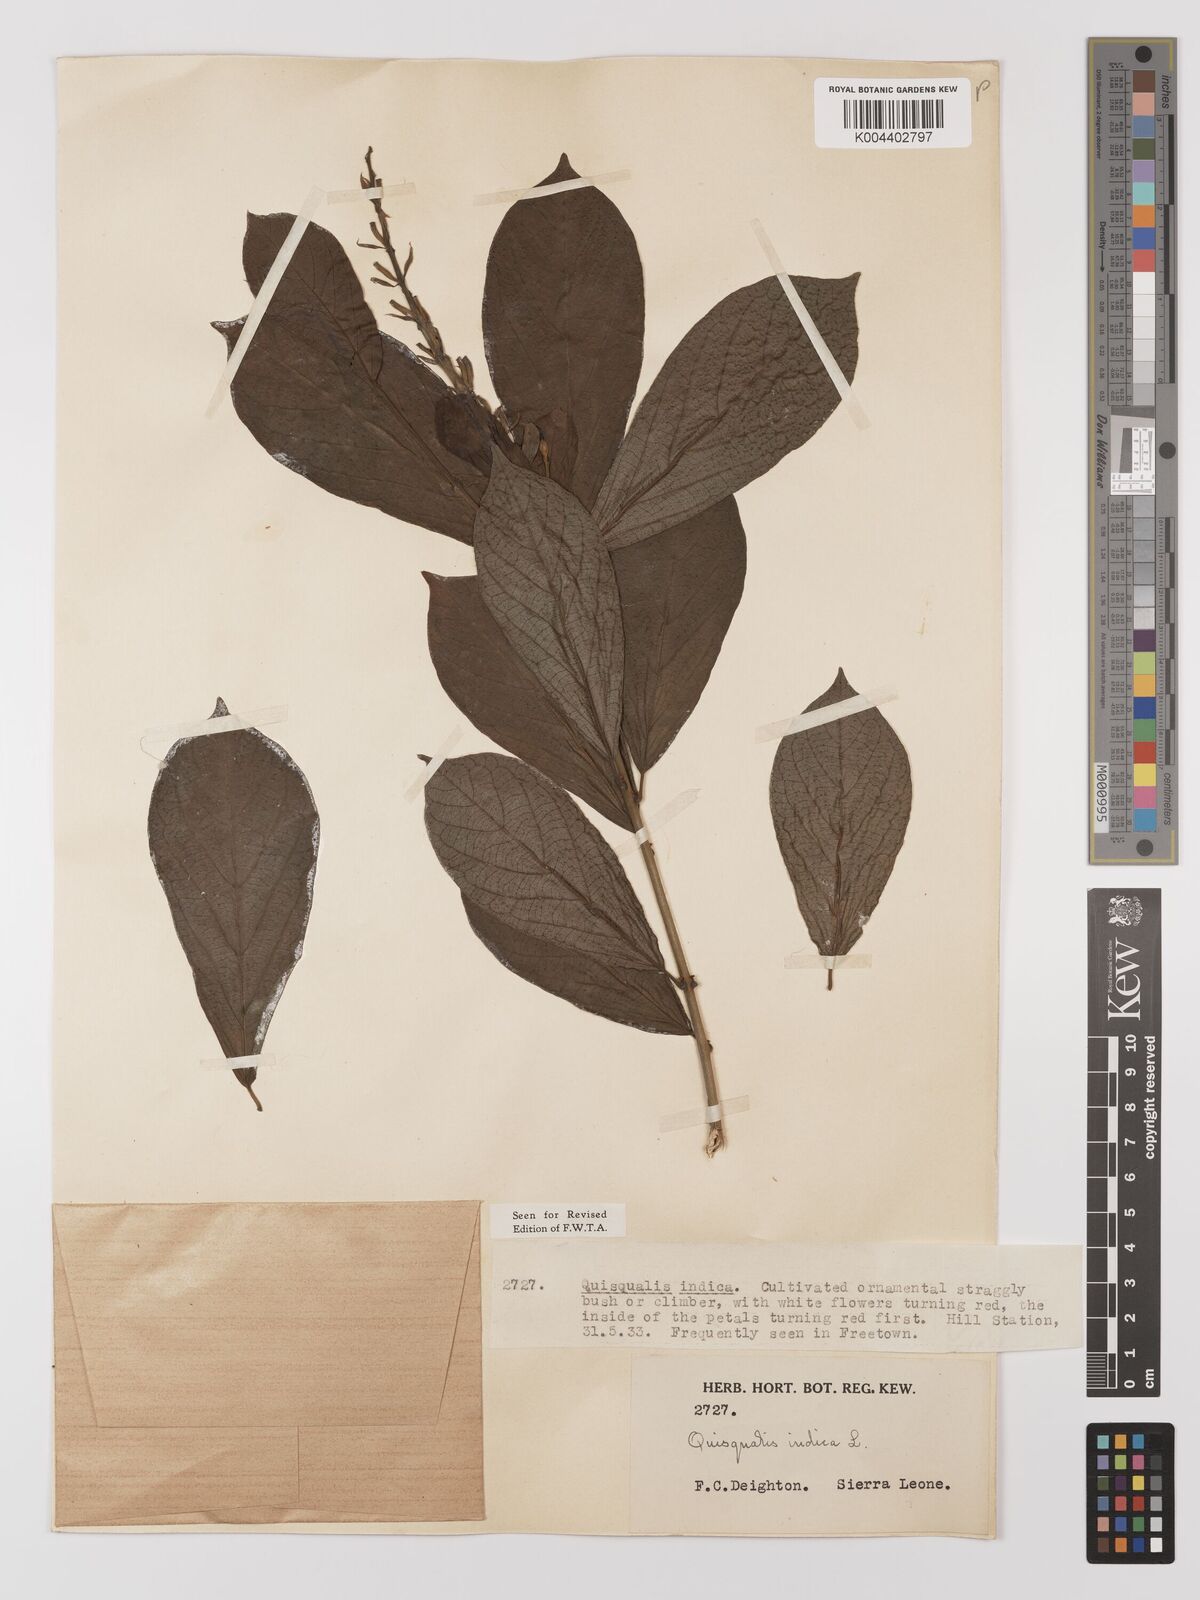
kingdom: Plantae
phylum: Tracheophyta
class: Magnoliopsida
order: Myrtales
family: Combretaceae
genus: Combretum
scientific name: Combretum
